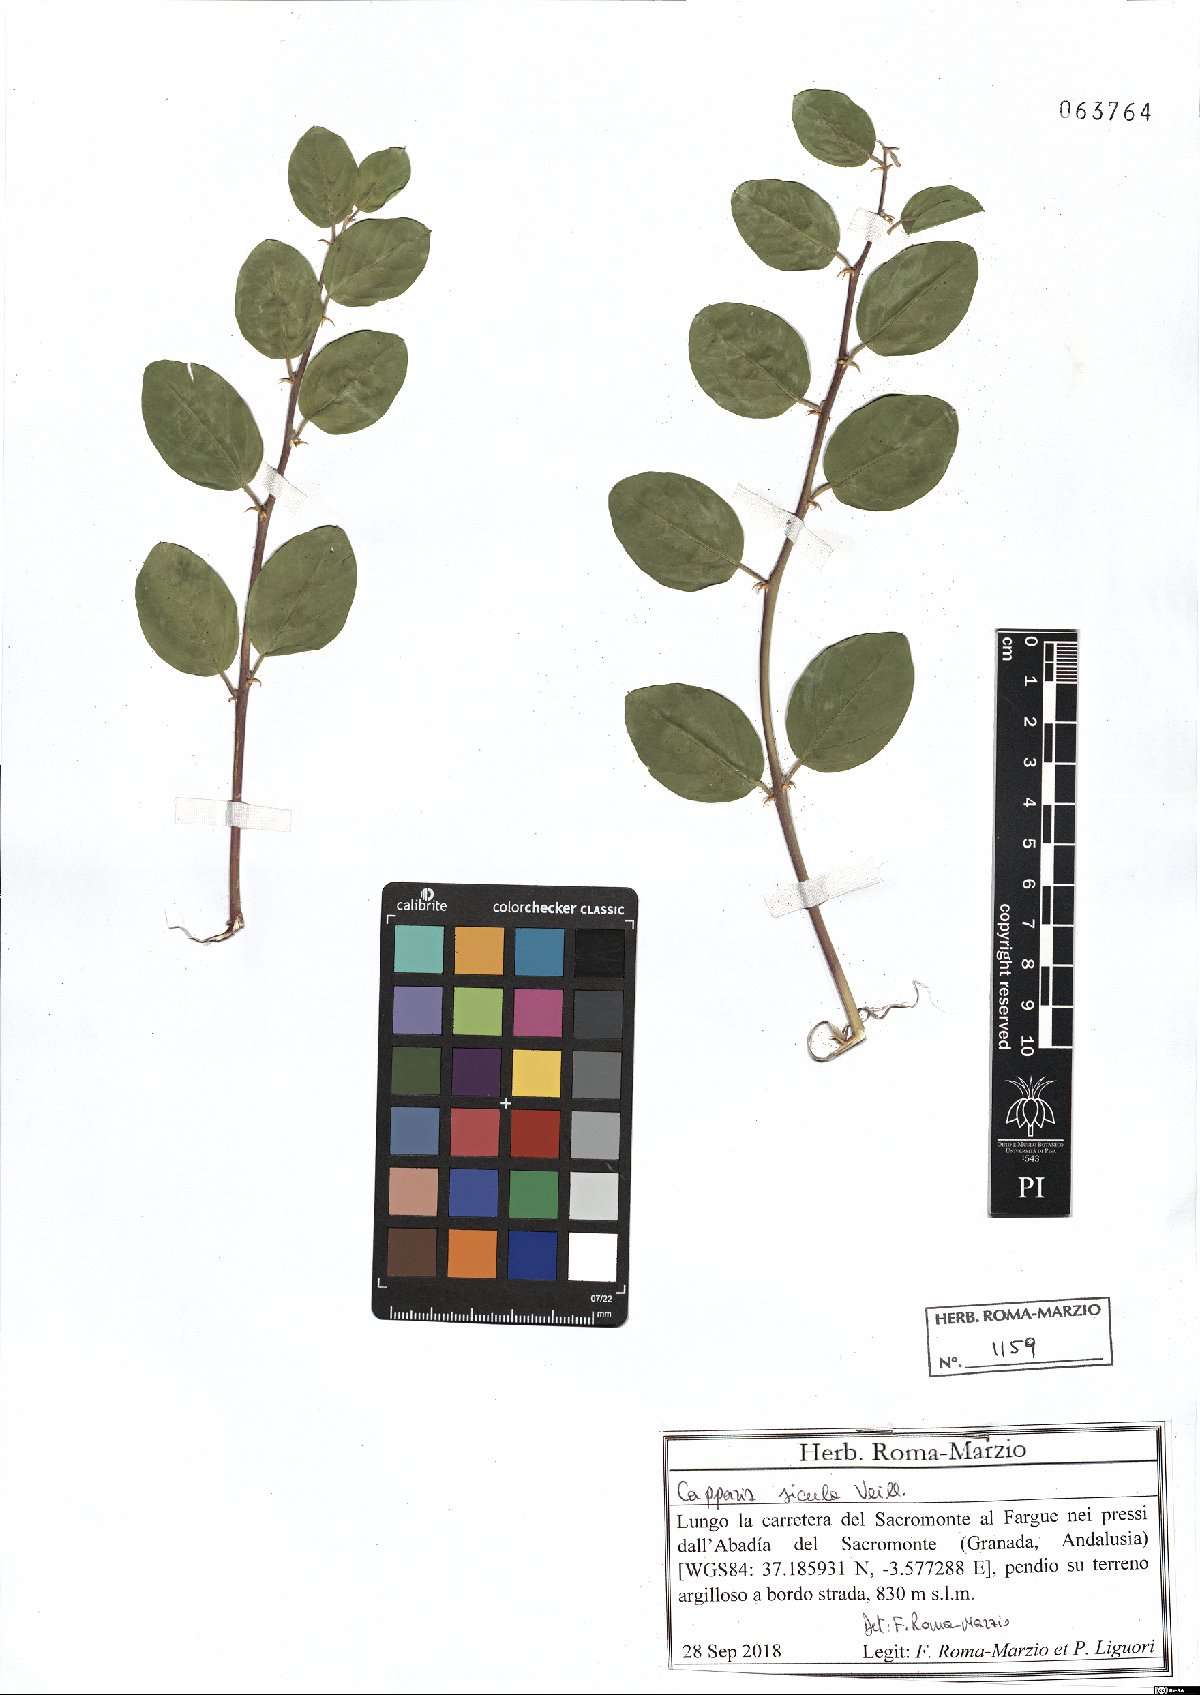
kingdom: Plantae
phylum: Tracheophyta
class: Magnoliopsida
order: Brassicales
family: Capparaceae
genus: Capparis
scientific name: Capparis spinosa
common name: Caper
